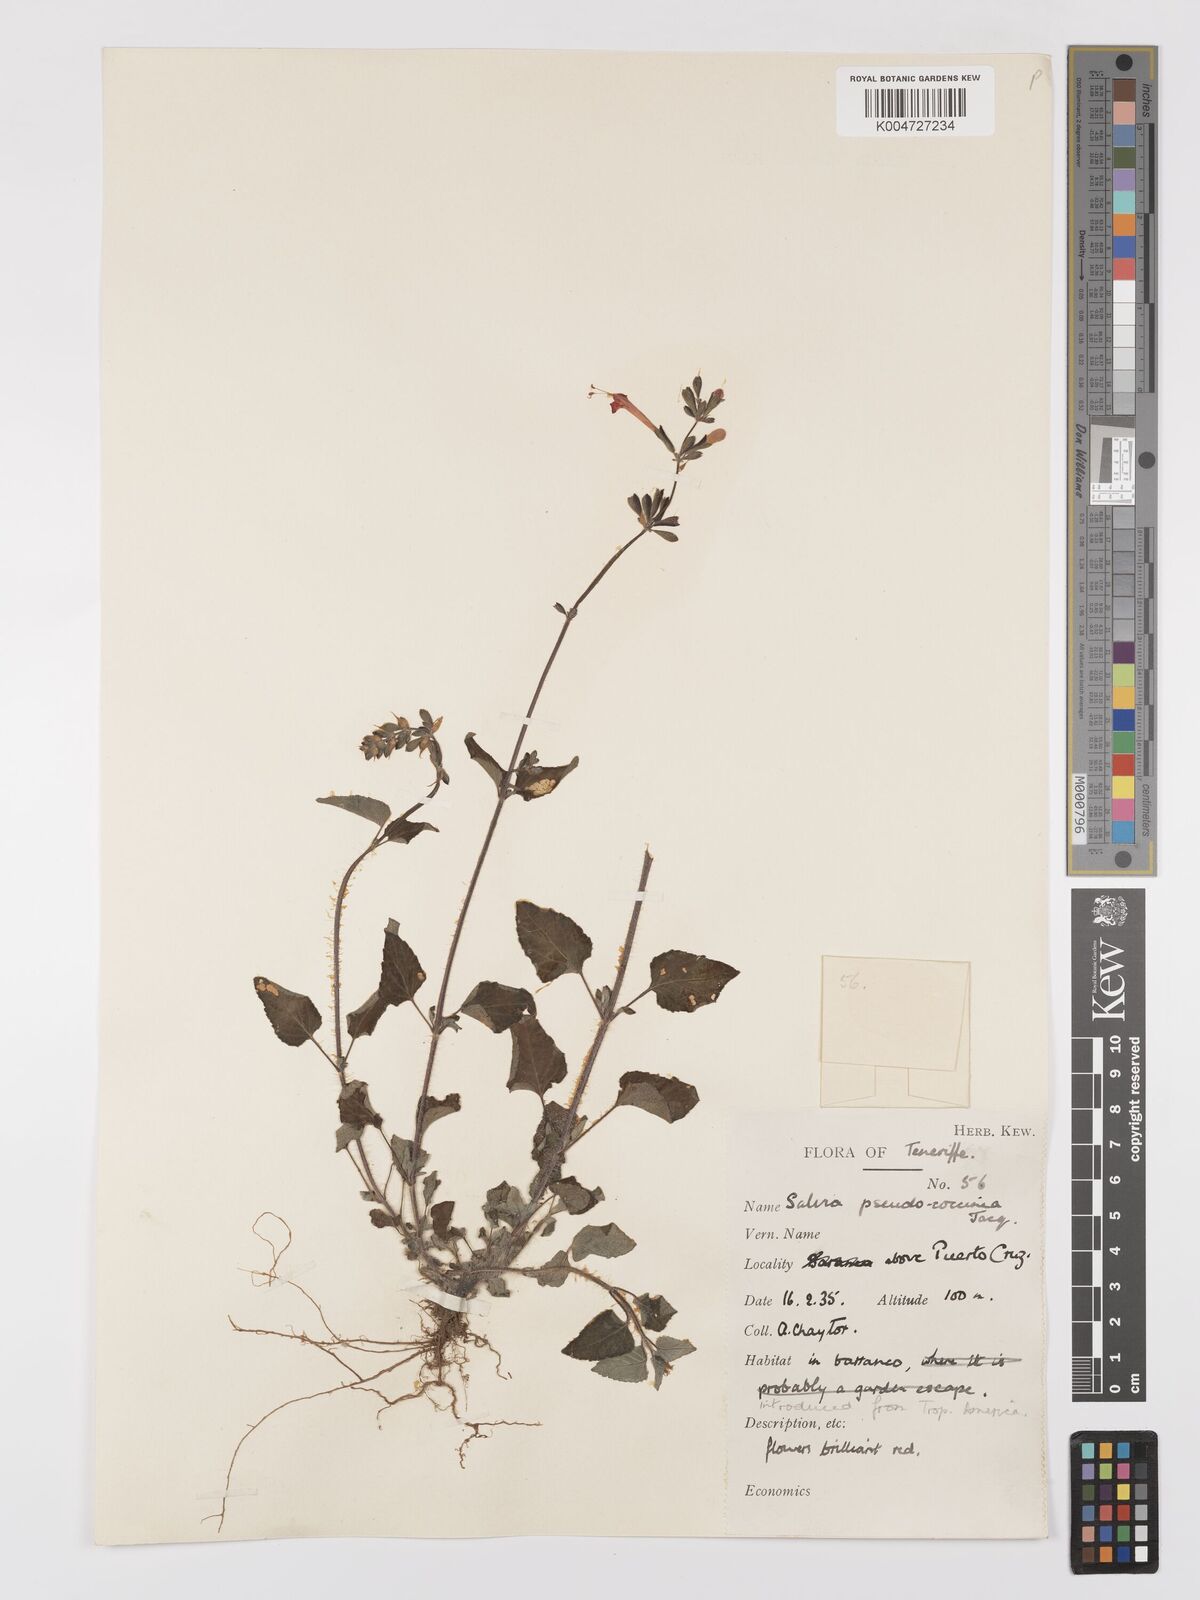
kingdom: Plantae
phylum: Tracheophyta
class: Magnoliopsida
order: Lamiales
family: Lamiaceae
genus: Salvia
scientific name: Salvia
